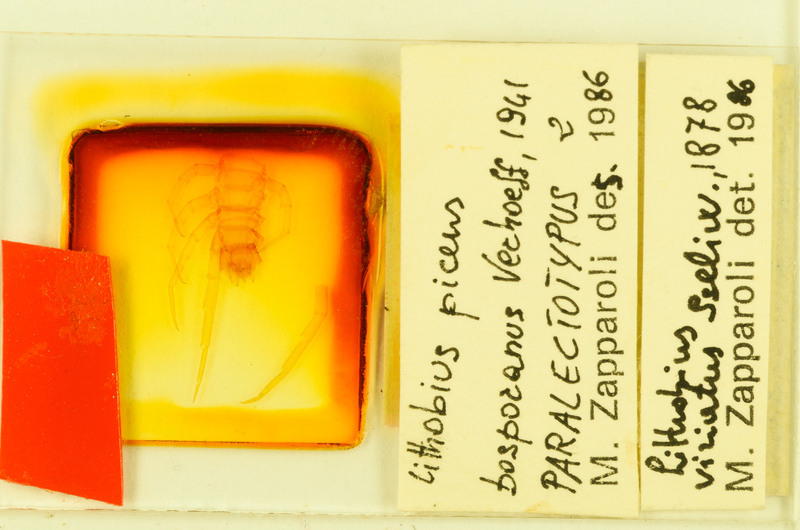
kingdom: Animalia
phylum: Arthropoda
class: Chilopoda
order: Lithobiomorpha
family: Lithobiidae
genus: Lithobius
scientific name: Lithobius viriatus
